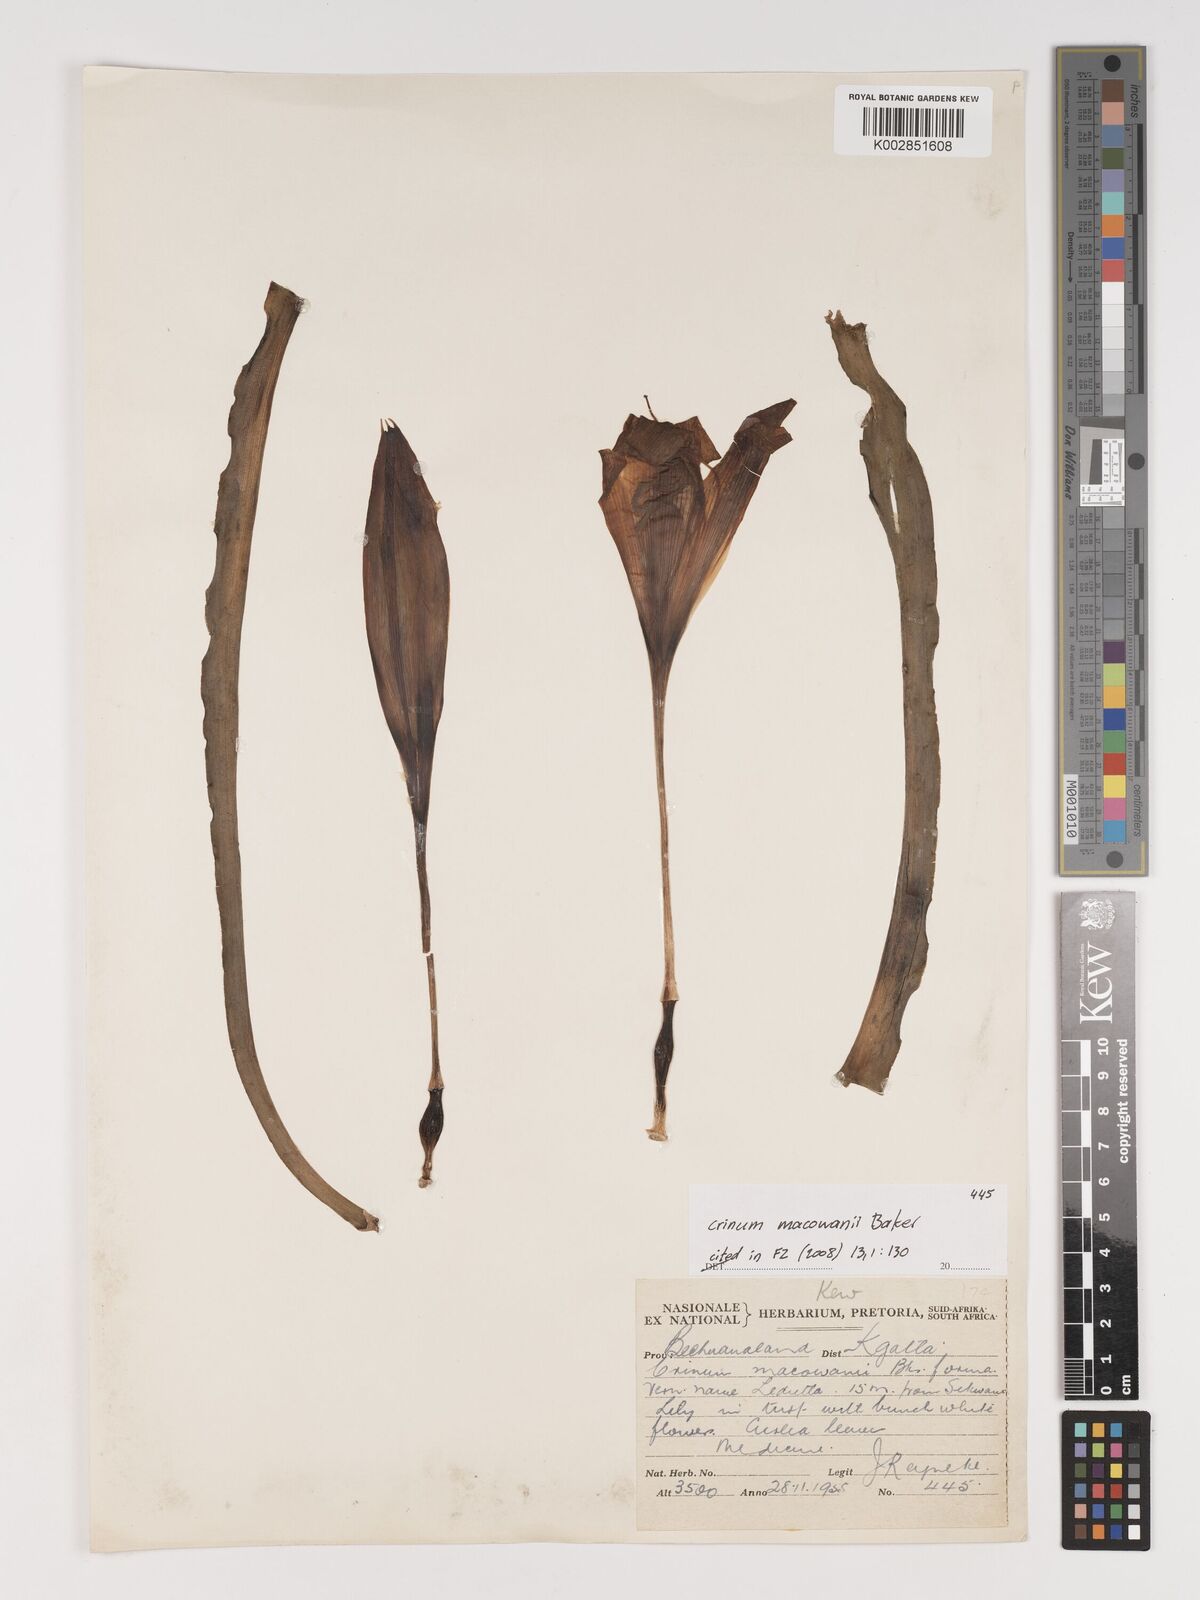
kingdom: Plantae
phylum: Tracheophyta
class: Liliopsida
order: Asparagales
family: Amaryllidaceae
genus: Crinum
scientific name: Crinum macowanii
